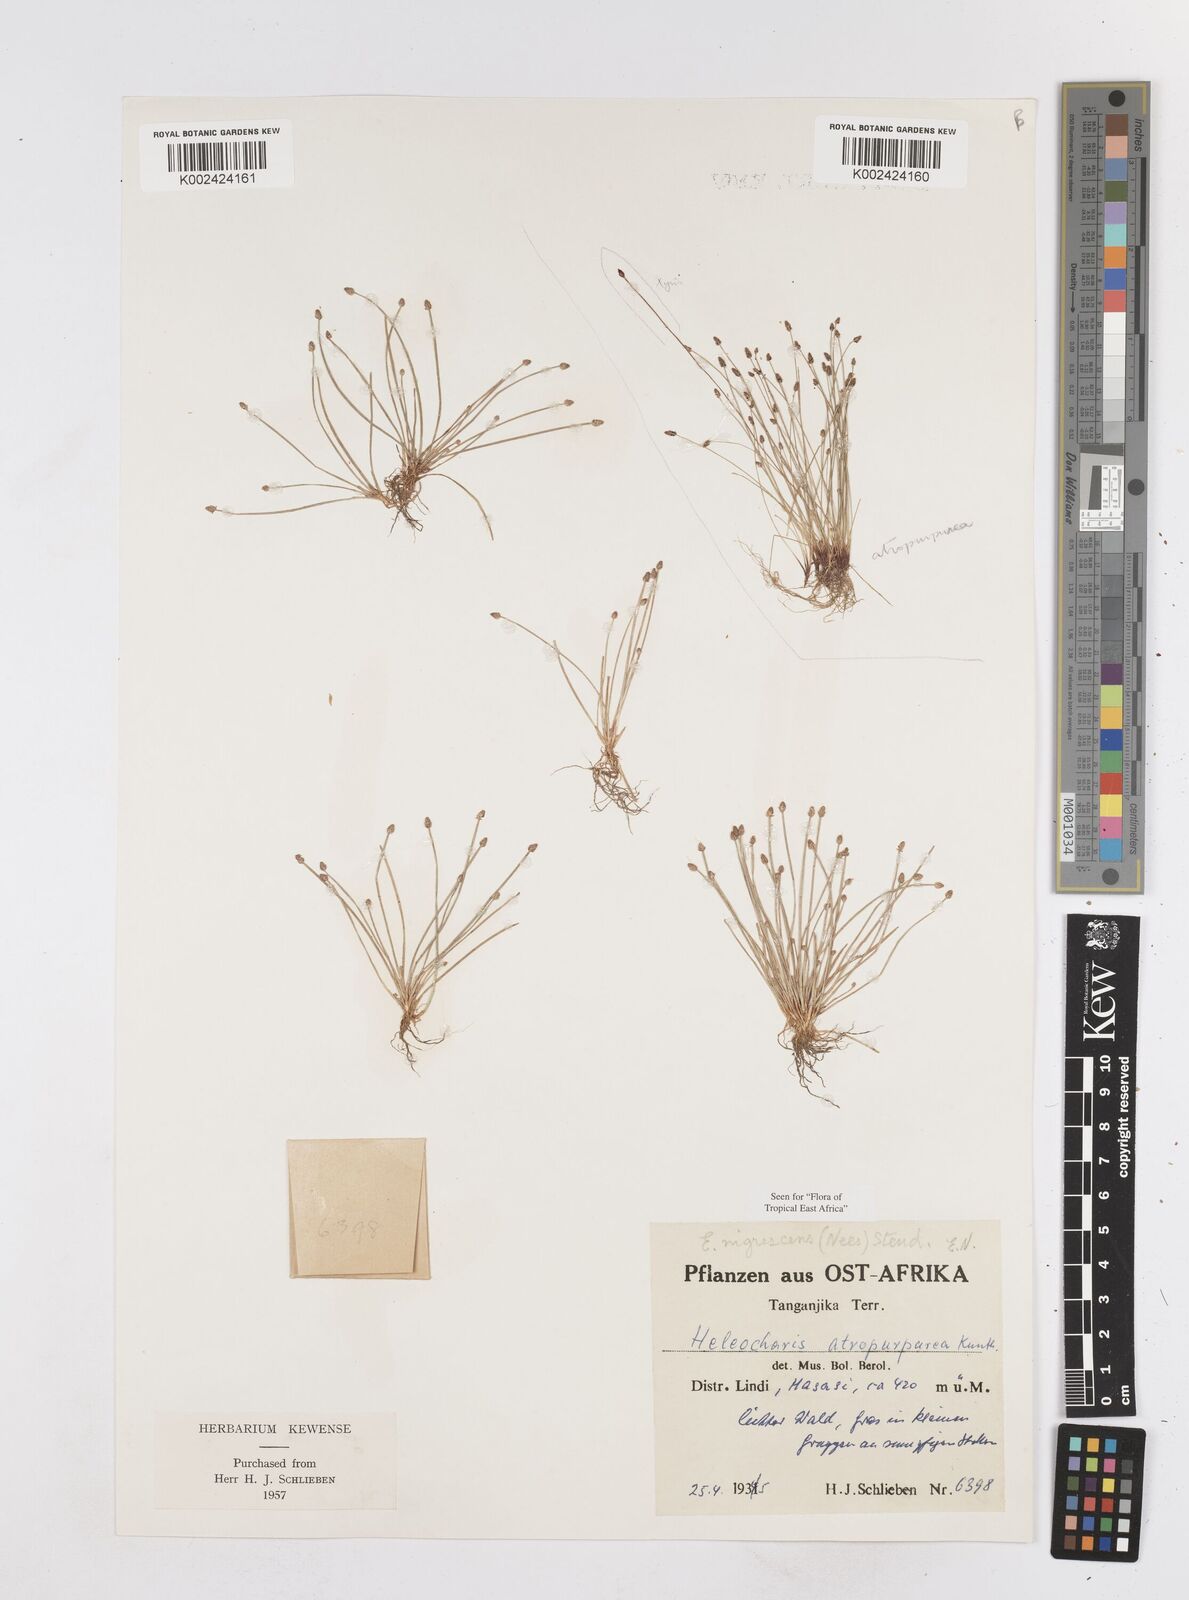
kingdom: Plantae
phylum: Tracheophyta
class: Liliopsida
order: Poales
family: Cyperaceae
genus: Eleocharis
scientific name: Eleocharis nigrescens
